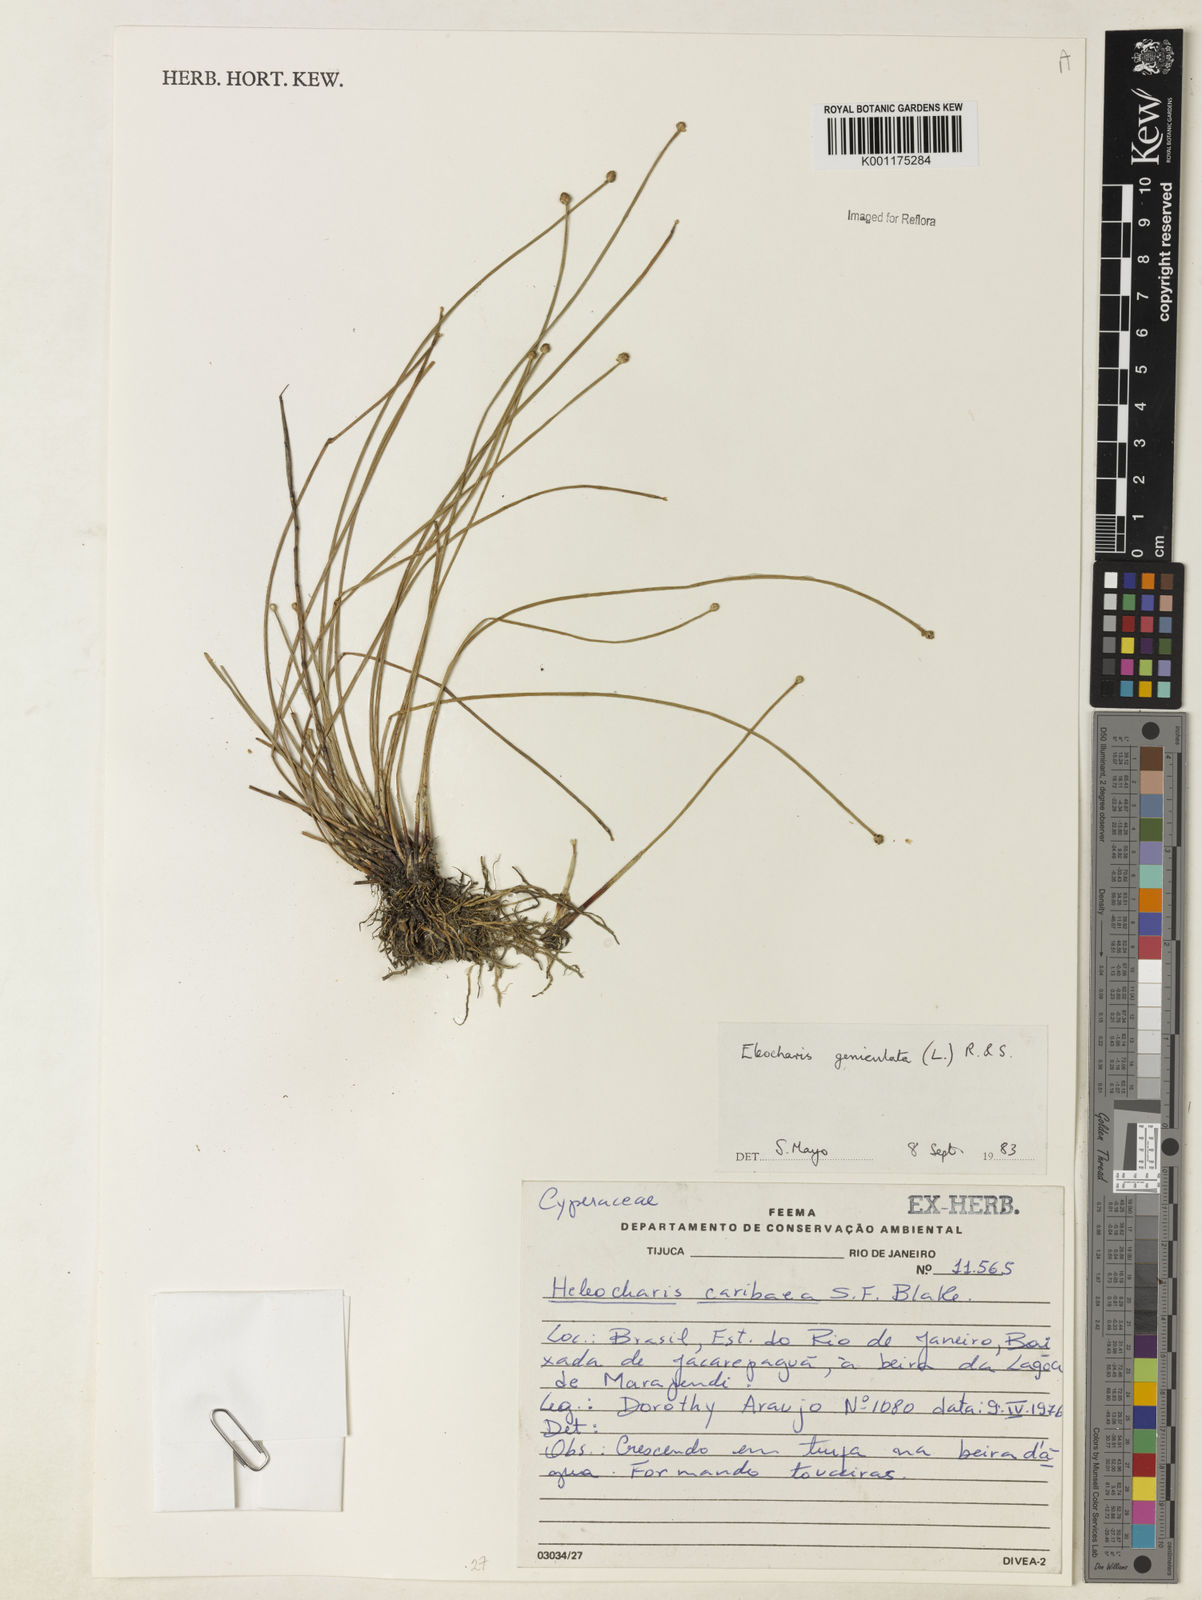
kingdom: Plantae
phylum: Tracheophyta
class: Liliopsida
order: Poales
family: Cyperaceae
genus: Eleocharis
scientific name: Eleocharis geniculata
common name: Canada spikesedge
